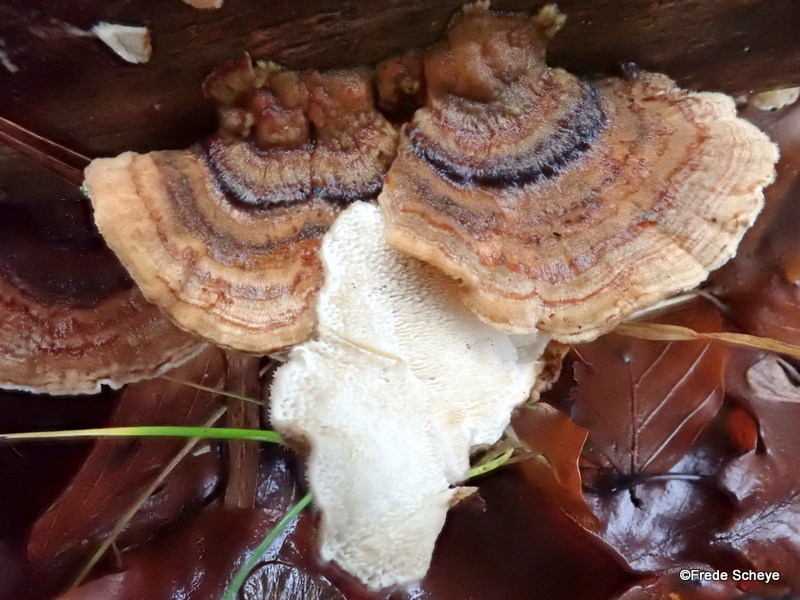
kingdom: Fungi
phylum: Basidiomycota
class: Agaricomycetes
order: Polyporales
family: Polyporaceae
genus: Trametes
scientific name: Trametes versicolor
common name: broget læderporesvamp
